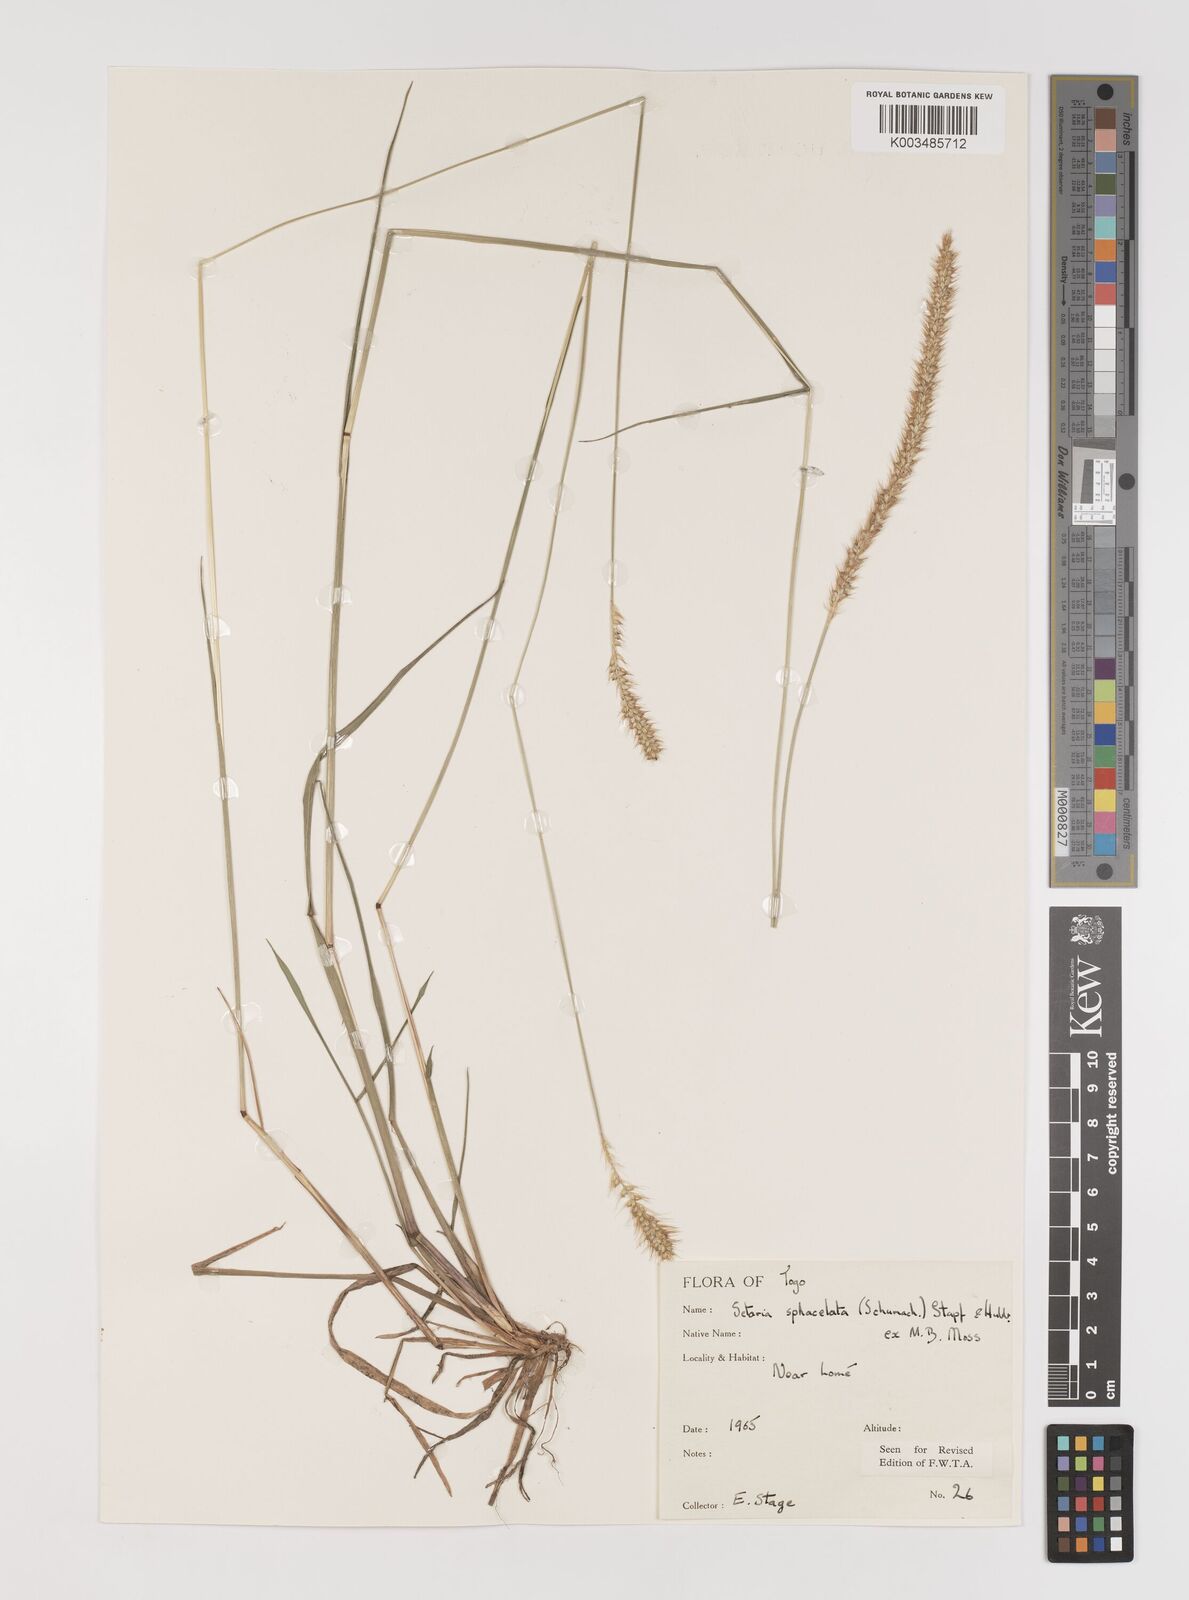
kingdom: Plantae
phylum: Tracheophyta
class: Liliopsida
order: Poales
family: Poaceae
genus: Setaria
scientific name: Setaria sphacelata
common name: African bristlegrass
